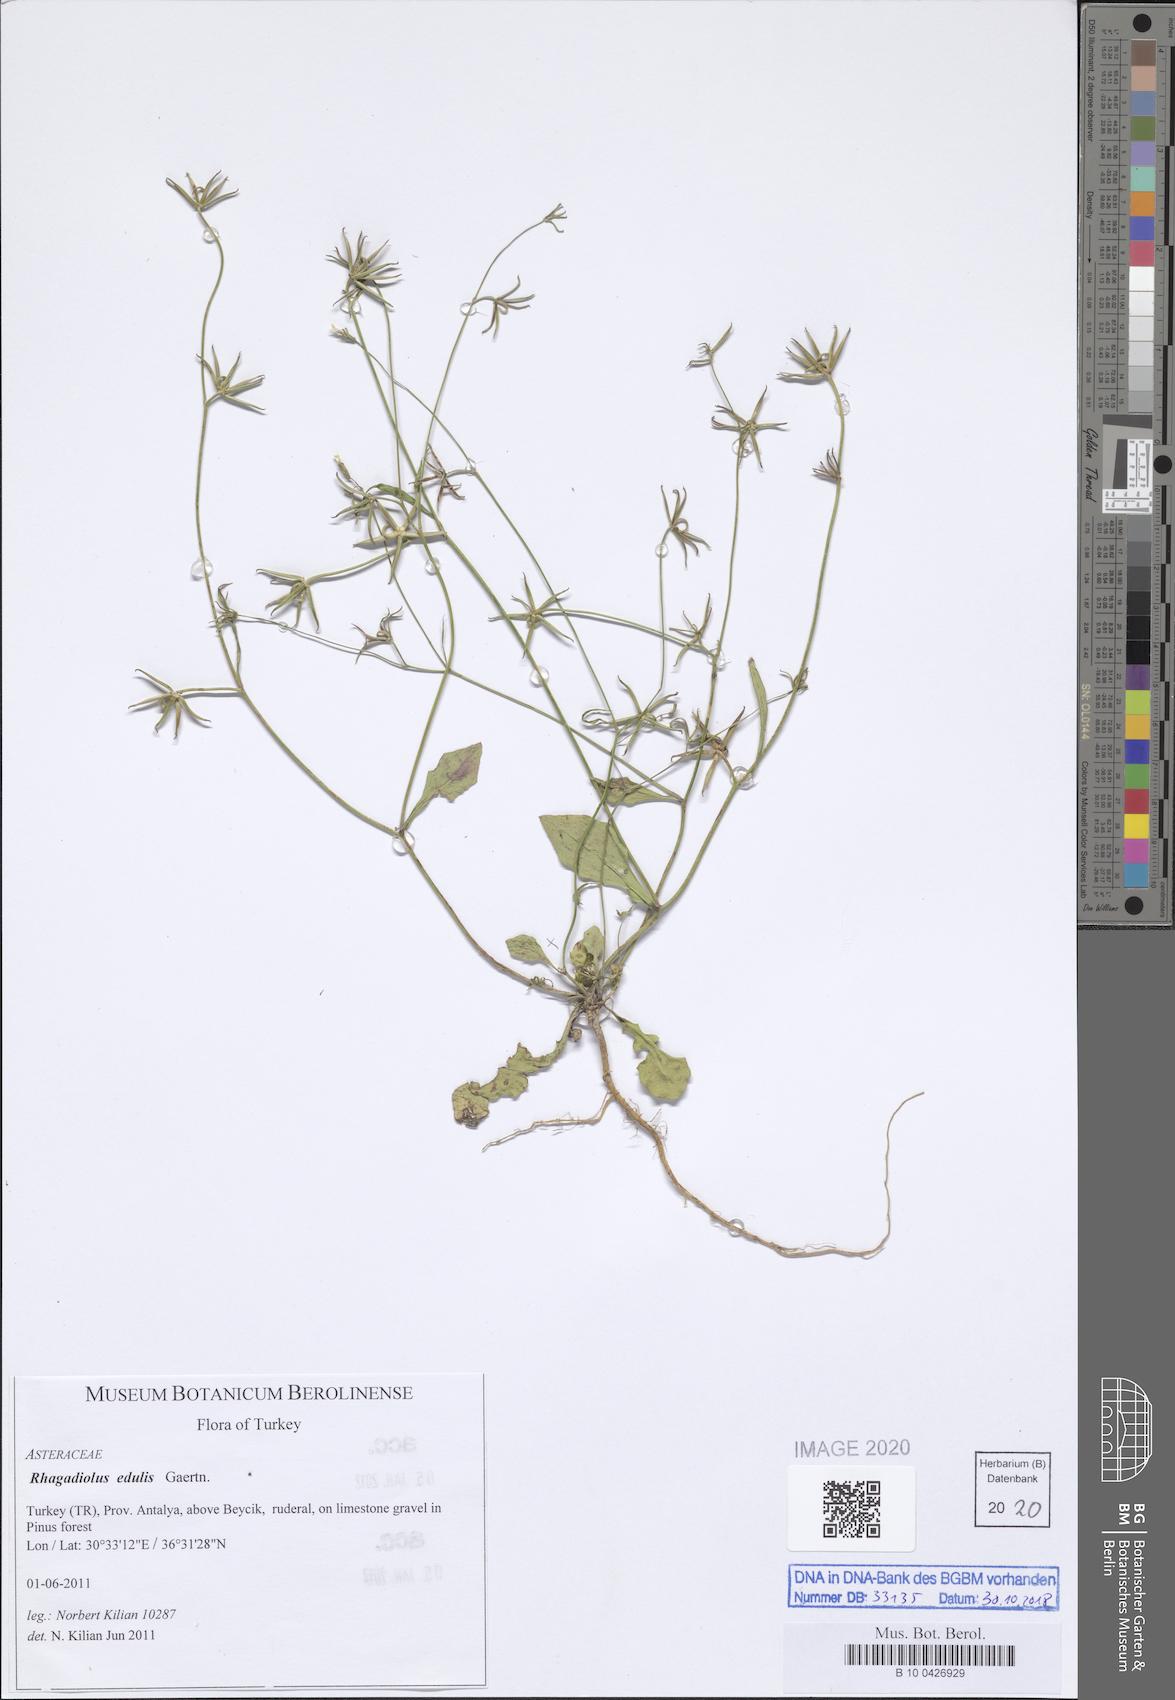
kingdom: Plantae
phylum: Tracheophyta
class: Magnoliopsida
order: Asterales
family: Asteraceae
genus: Rhagadiolus
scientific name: Rhagadiolus edulis
